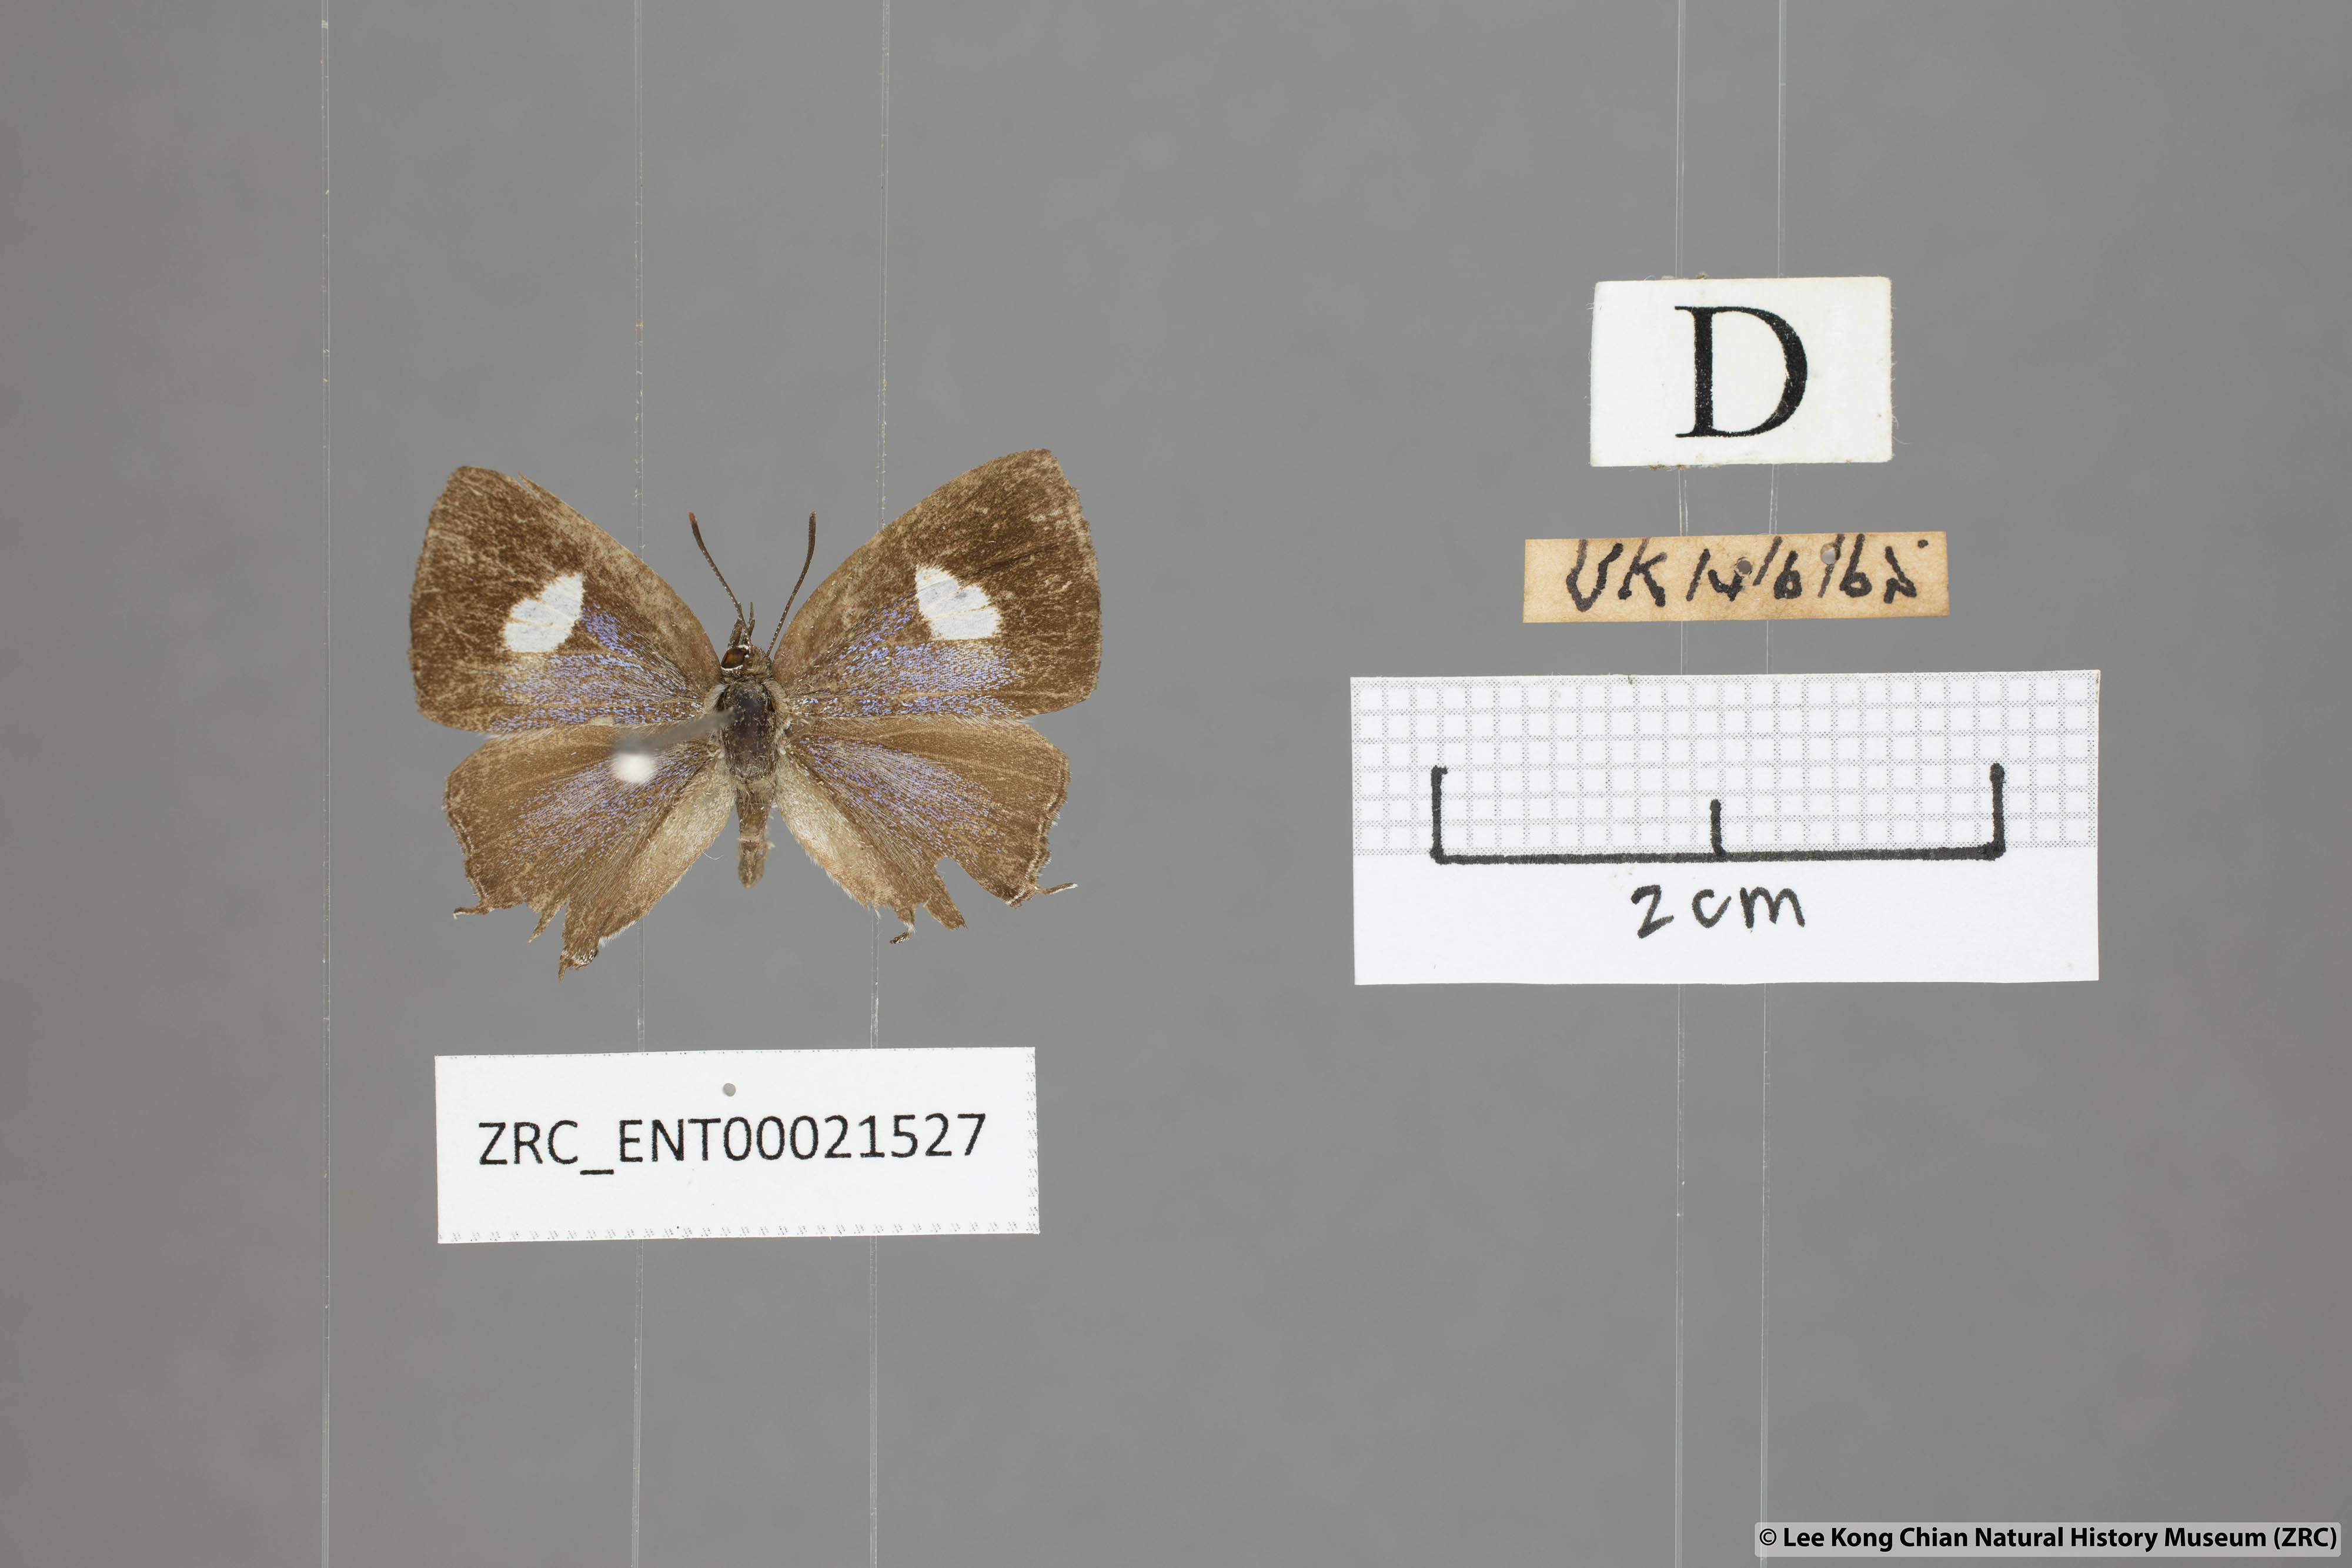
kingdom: Animalia
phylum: Arthropoda
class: Insecta
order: Lepidoptera
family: Lycaenidae
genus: Horaga
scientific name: Horaga syrinx
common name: Ambon onyx
